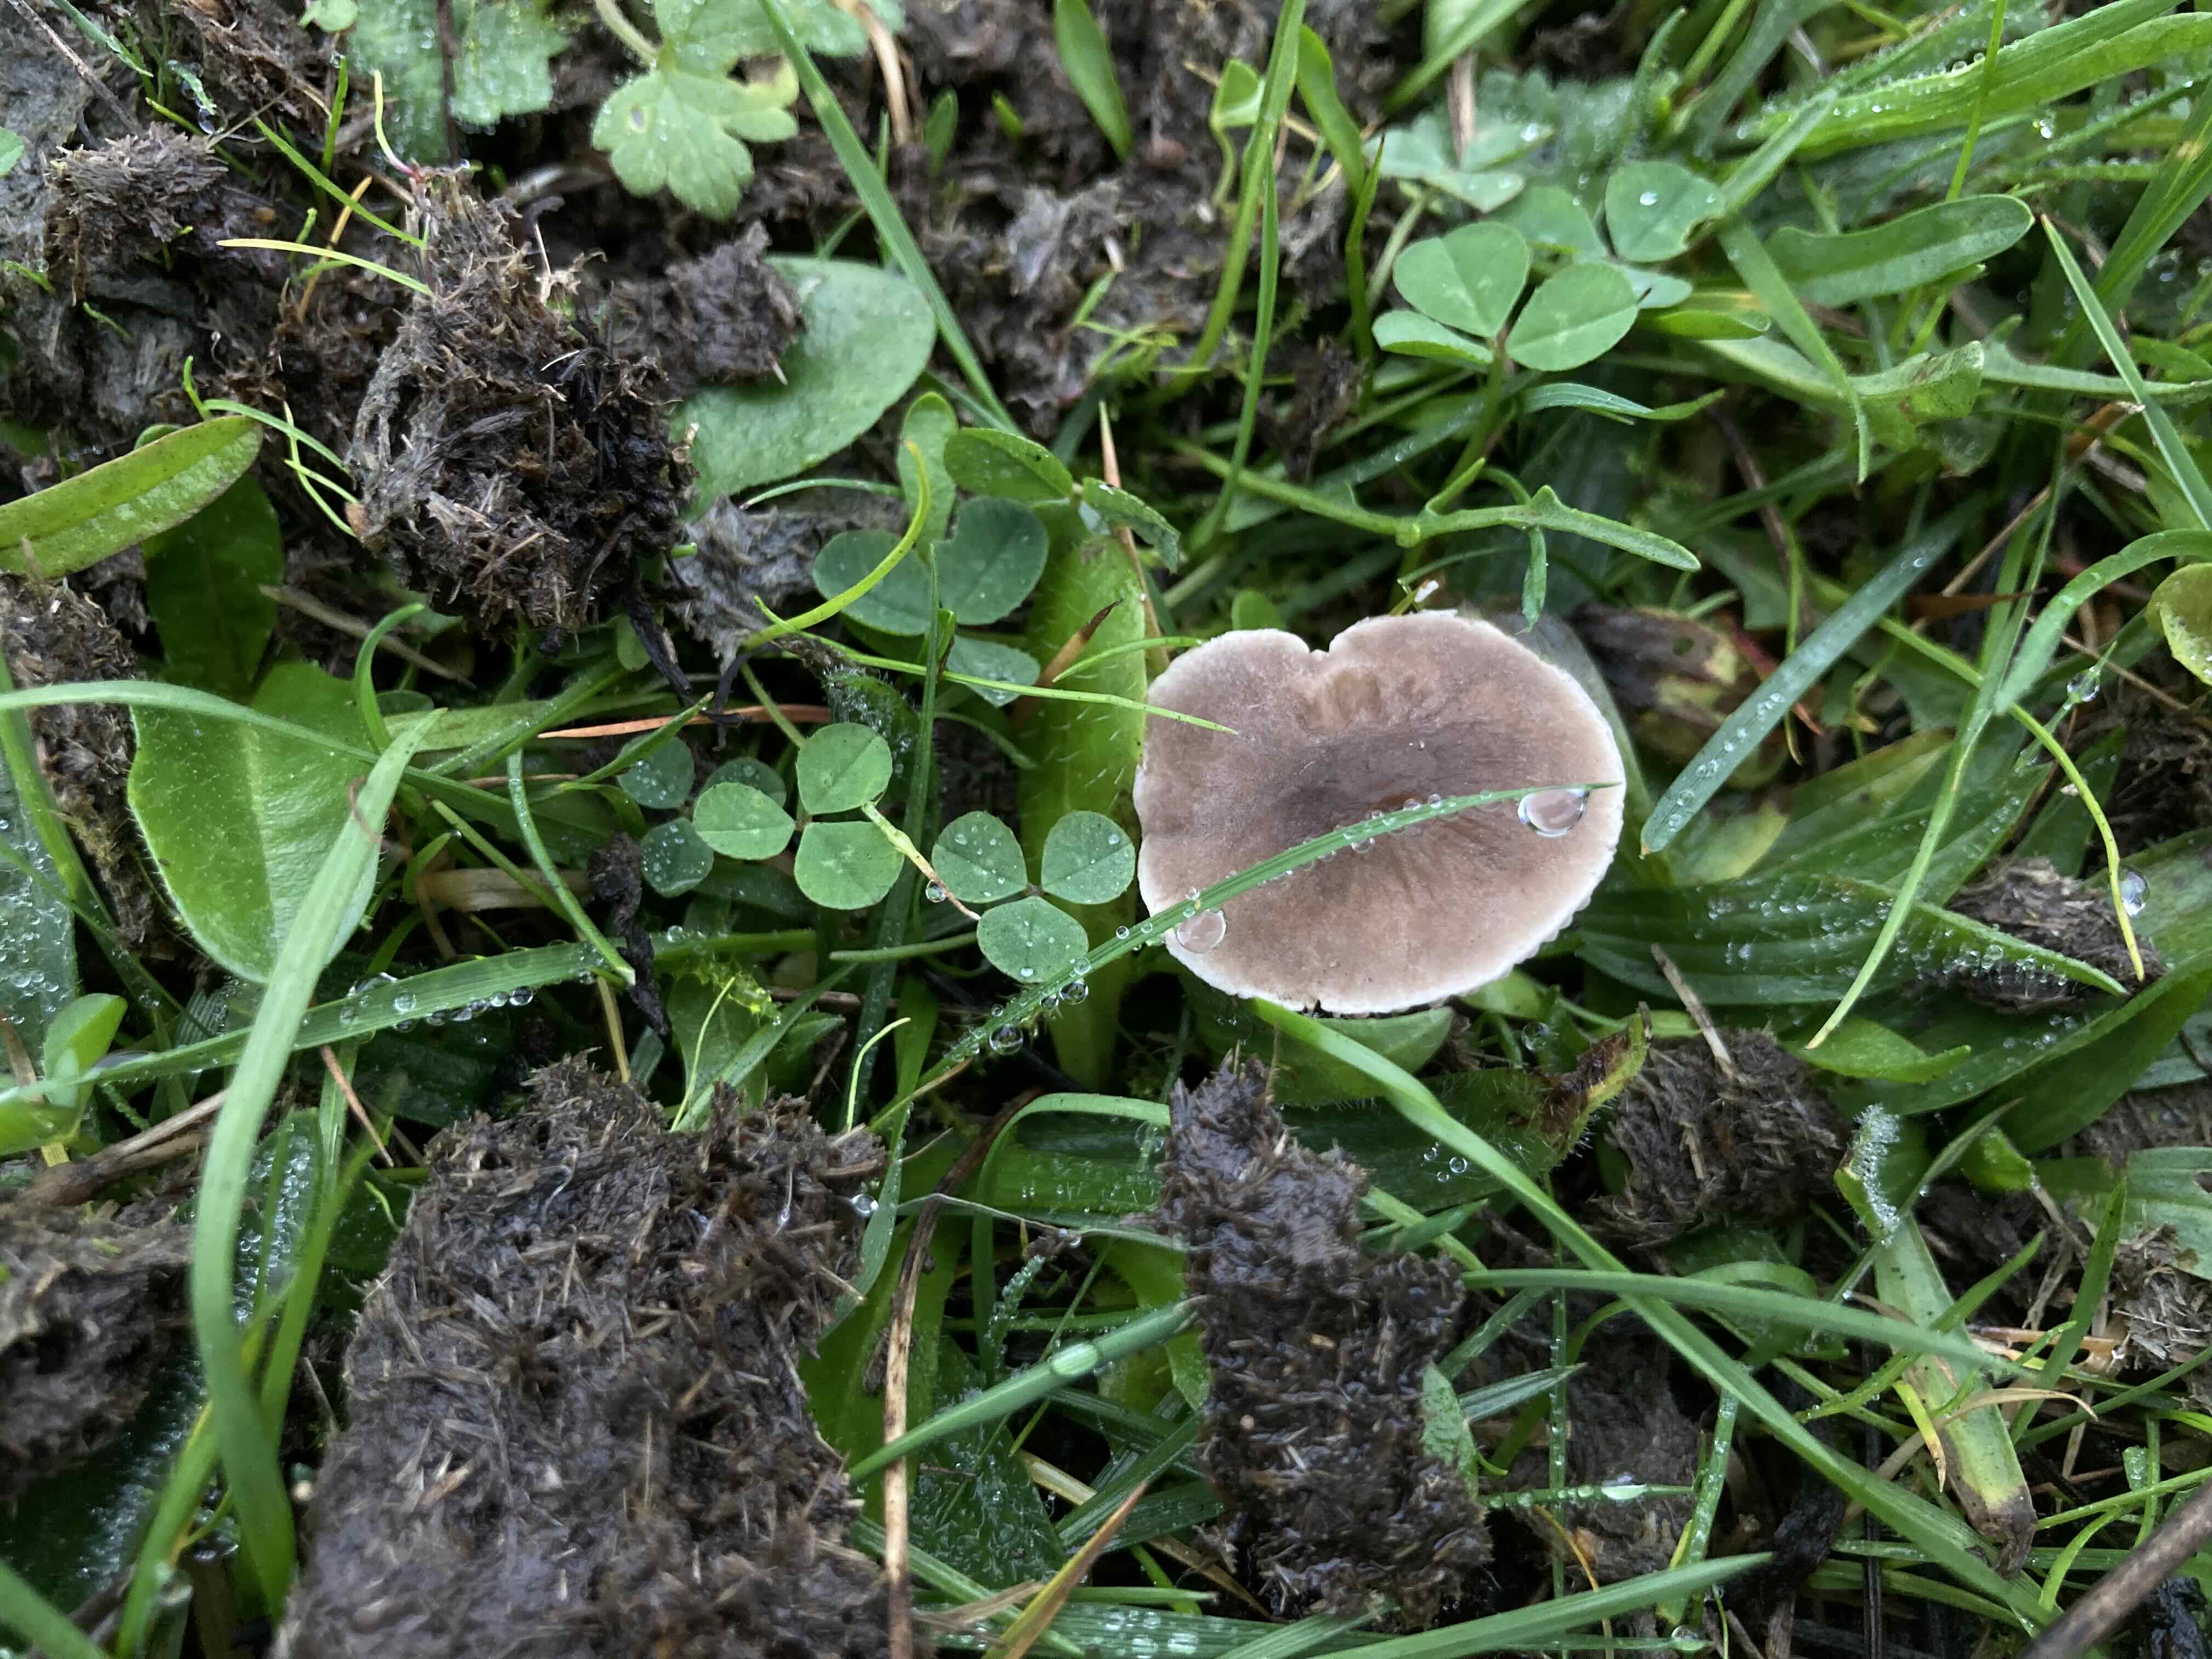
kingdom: Fungi
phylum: Basidiomycota
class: Agaricomycetes
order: Agaricales
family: Tricholomataceae
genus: Dermoloma
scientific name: Dermoloma
